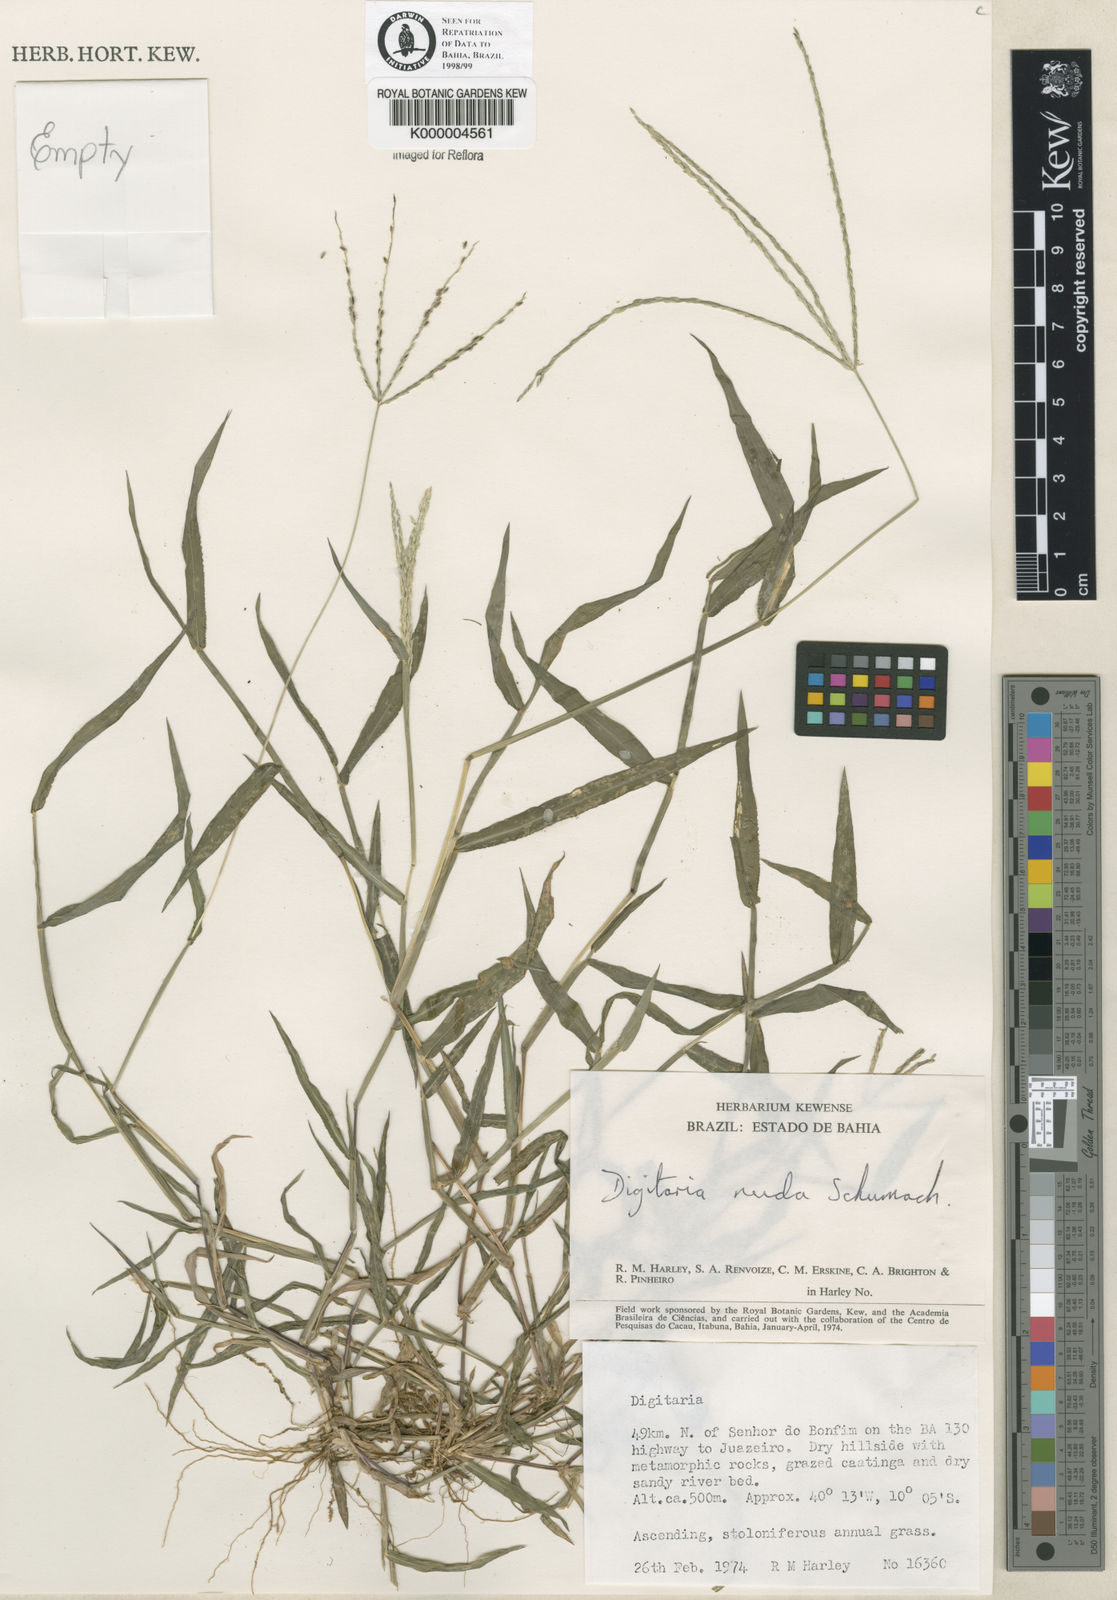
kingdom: Plantae
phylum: Tracheophyta
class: Liliopsida
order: Poales
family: Poaceae
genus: Digitaria
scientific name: Digitaria nuda
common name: Naked crabgrass
